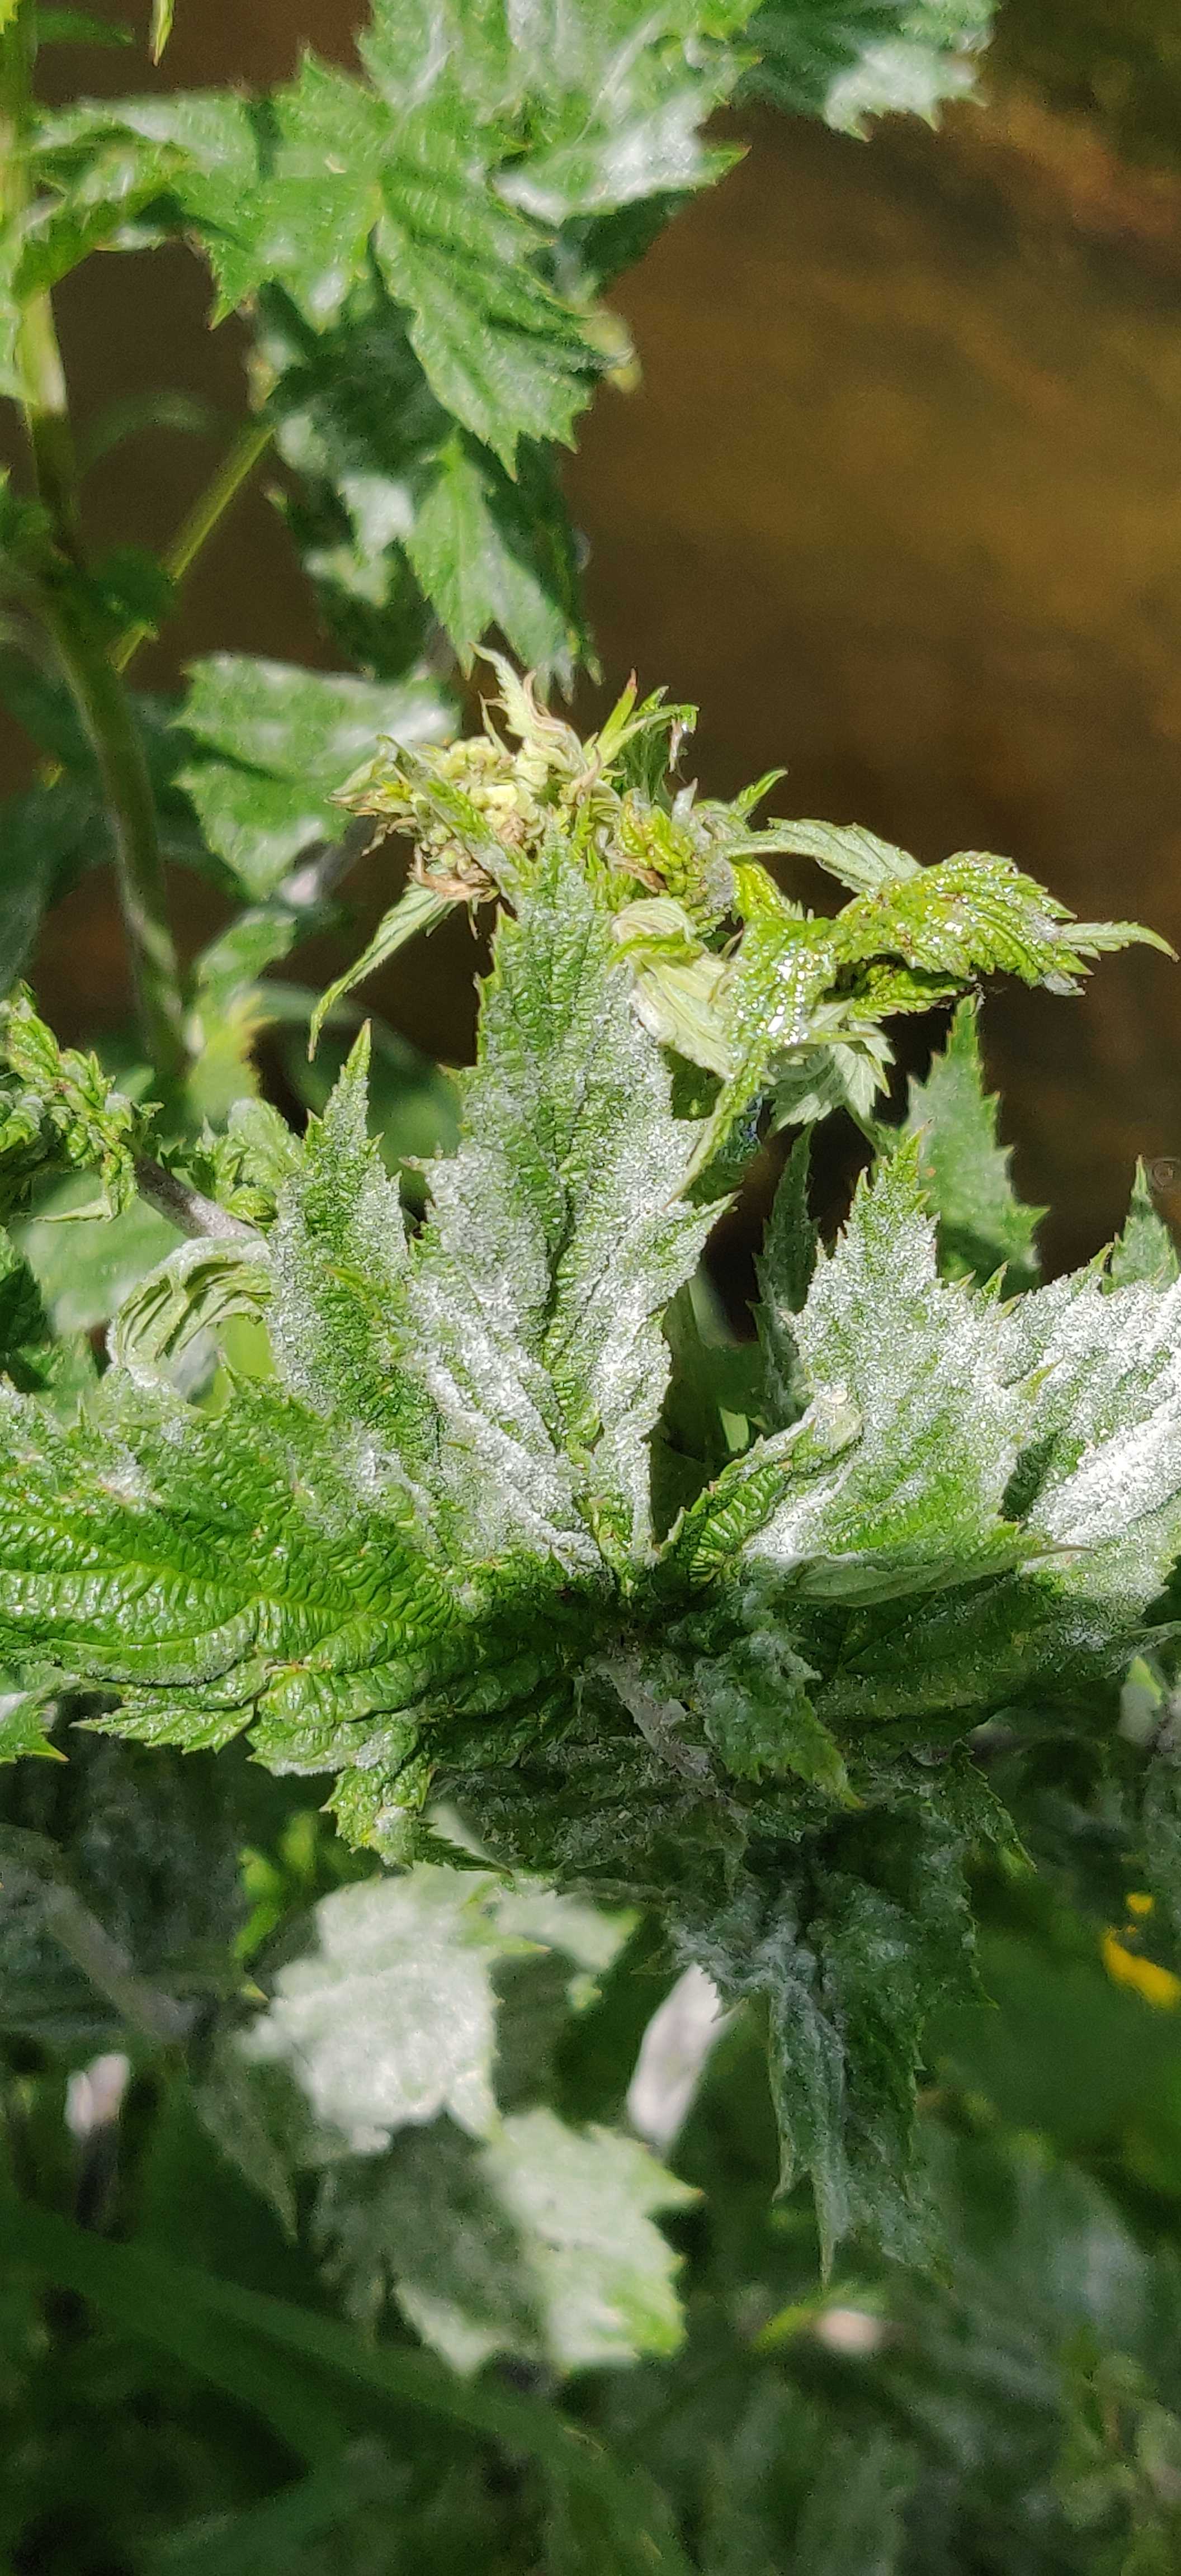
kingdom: Fungi
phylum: Ascomycota
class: Leotiomycetes
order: Helotiales
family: Erysiphaceae
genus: Podosphaera
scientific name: Podosphaera filipendulae
